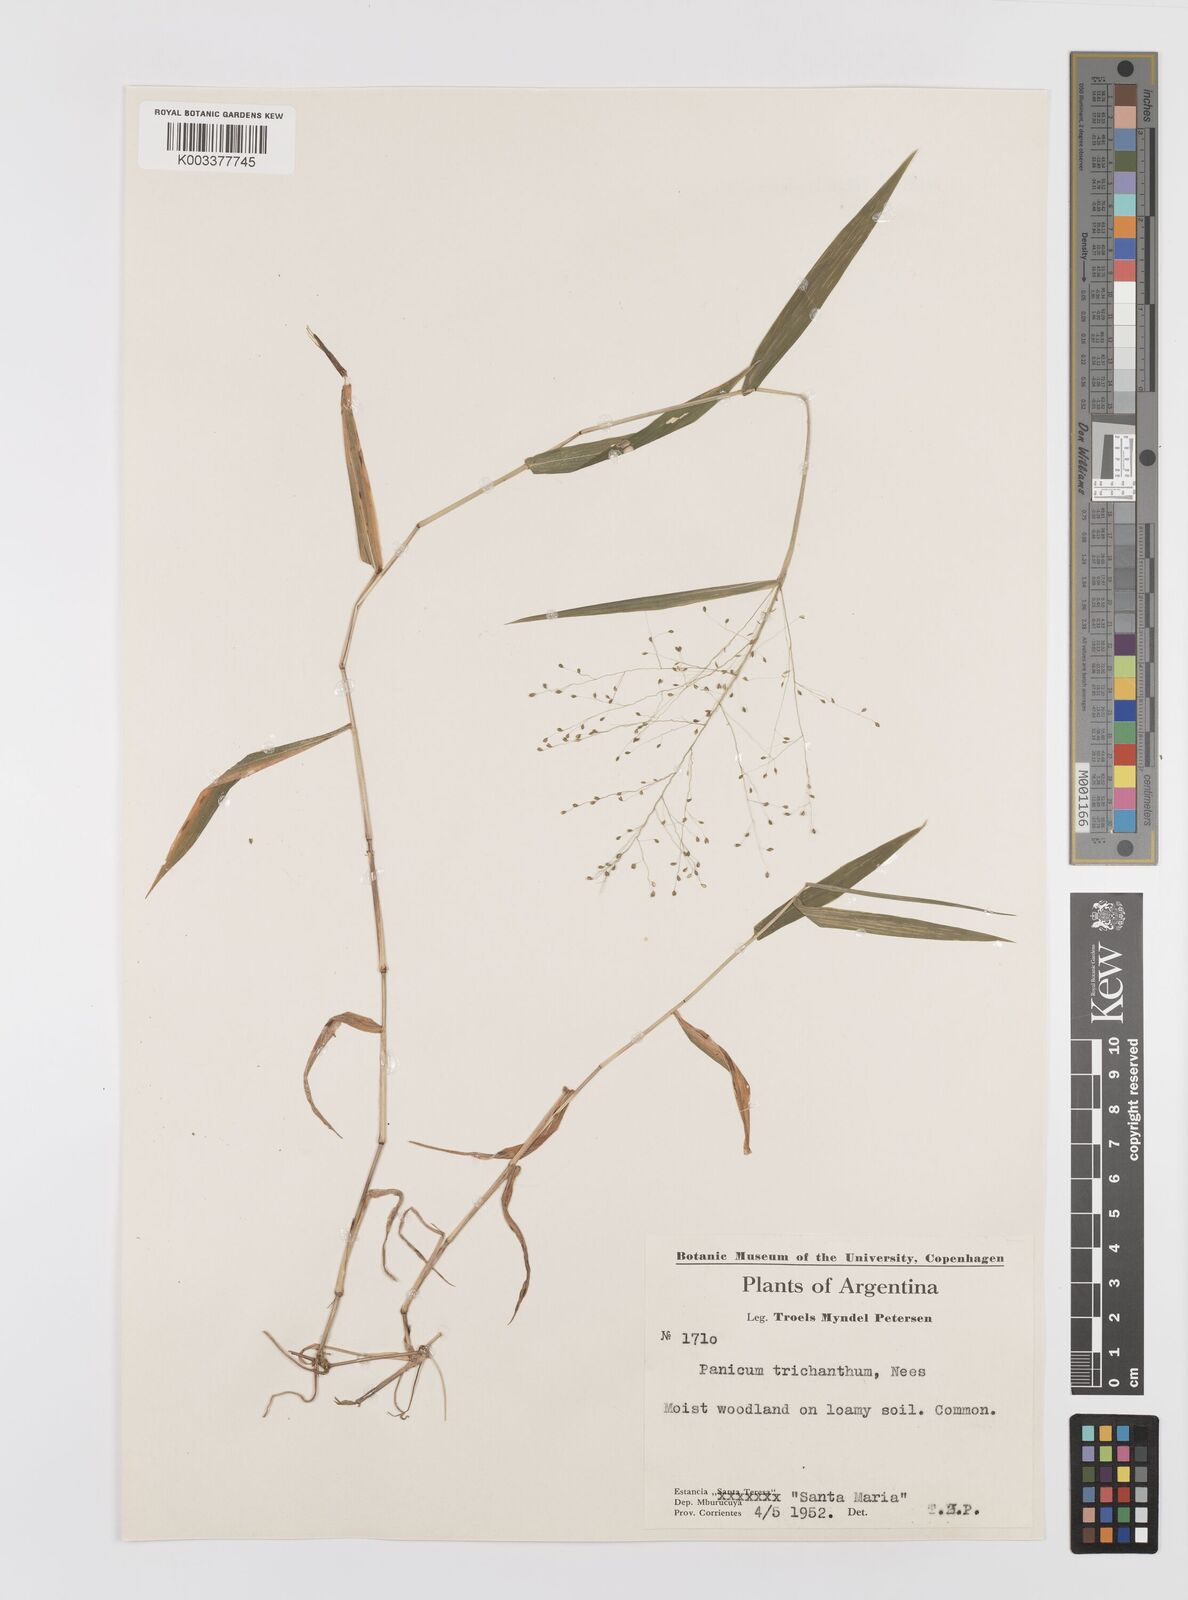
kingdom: Plantae
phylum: Tracheophyta
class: Liliopsida
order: Poales
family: Poaceae
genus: Panicum
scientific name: Panicum trichanthum
